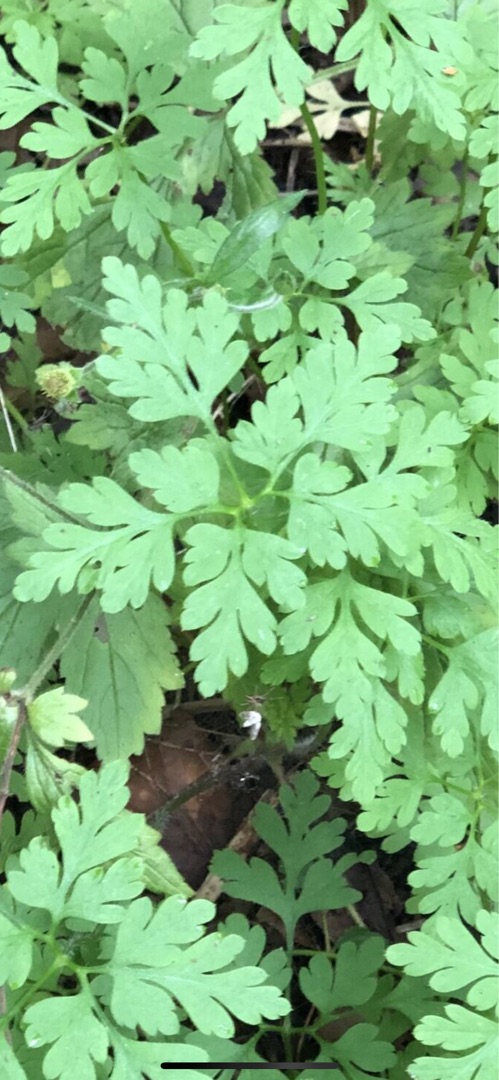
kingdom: Plantae
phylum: Tracheophyta
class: Magnoliopsida
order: Geraniales
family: Geraniaceae
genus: Geranium
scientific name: Geranium robertianum
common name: Stinkende storkenæb
